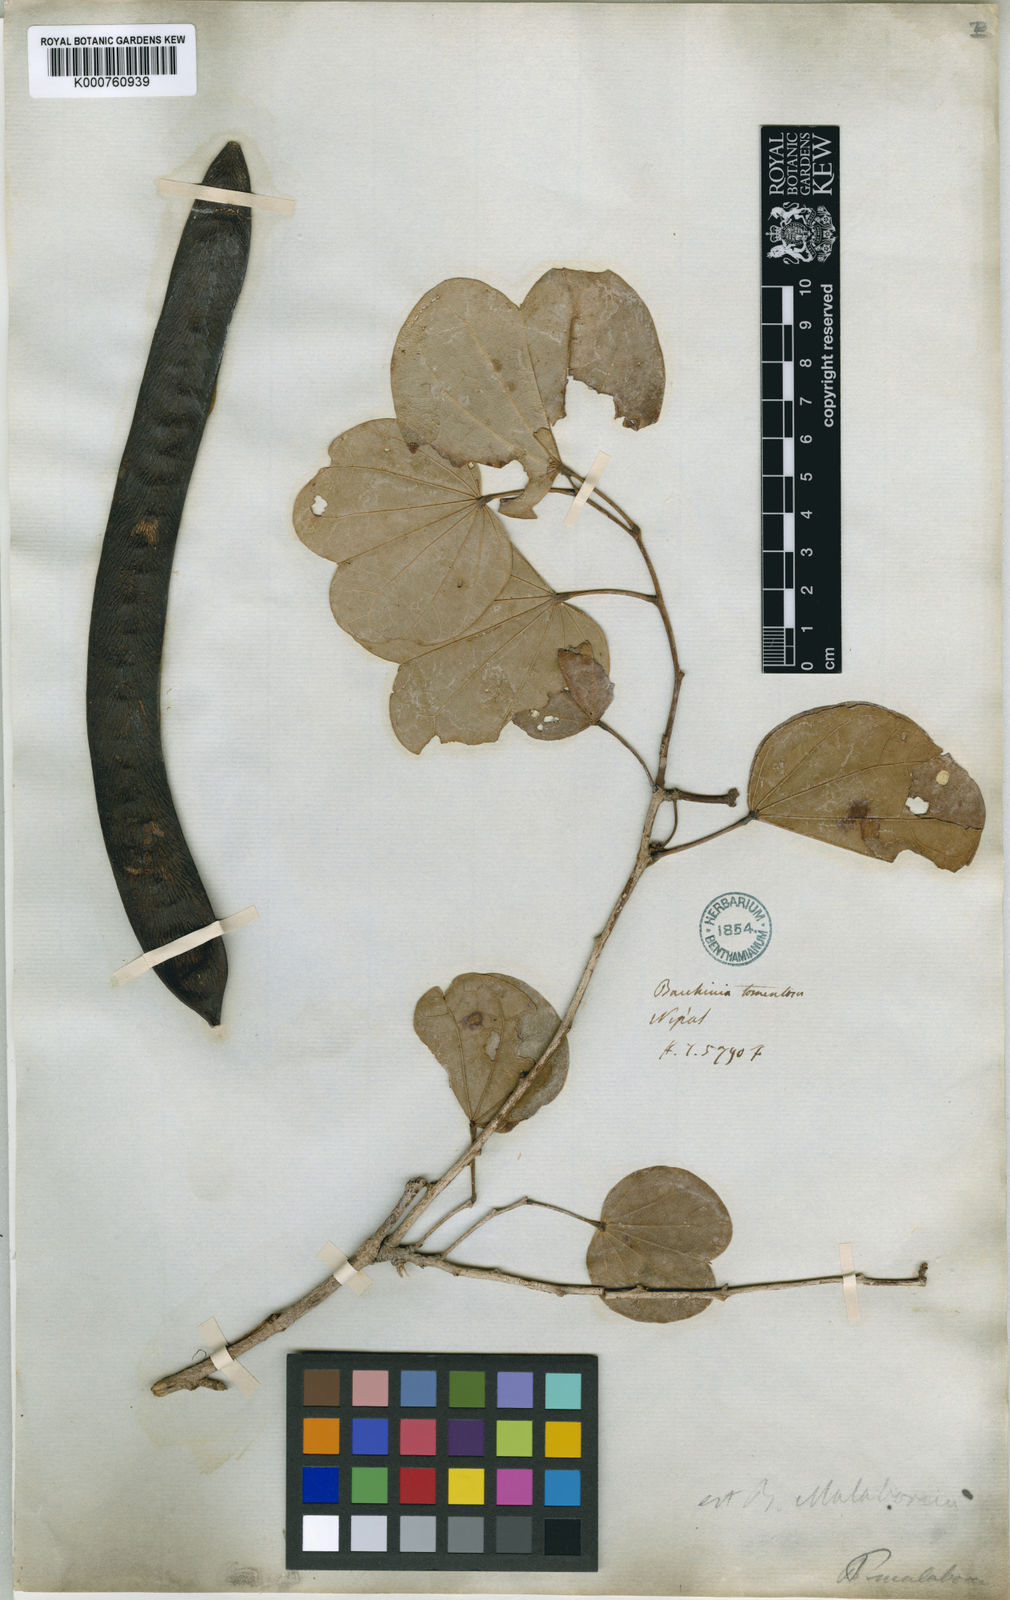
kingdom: Plantae
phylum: Tracheophyta
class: Magnoliopsida
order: Fabales
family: Fabaceae
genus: Piliostigma
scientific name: Piliostigma malabaricum
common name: Malabar bauhinia
